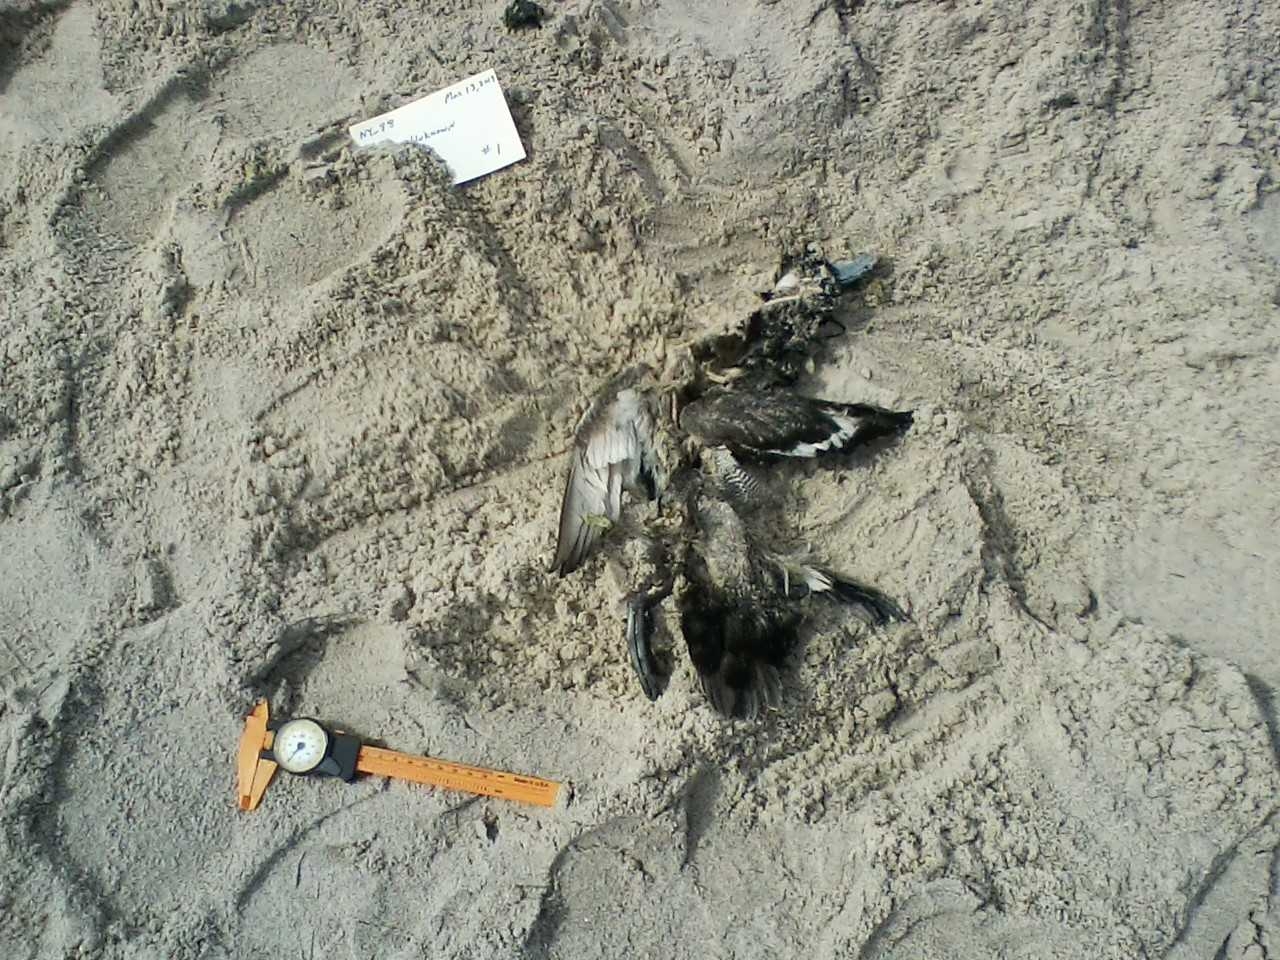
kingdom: Animalia
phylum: Chordata
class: Aves
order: Anseriformes
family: Anatidae
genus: Somateria
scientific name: Somateria mollissima
